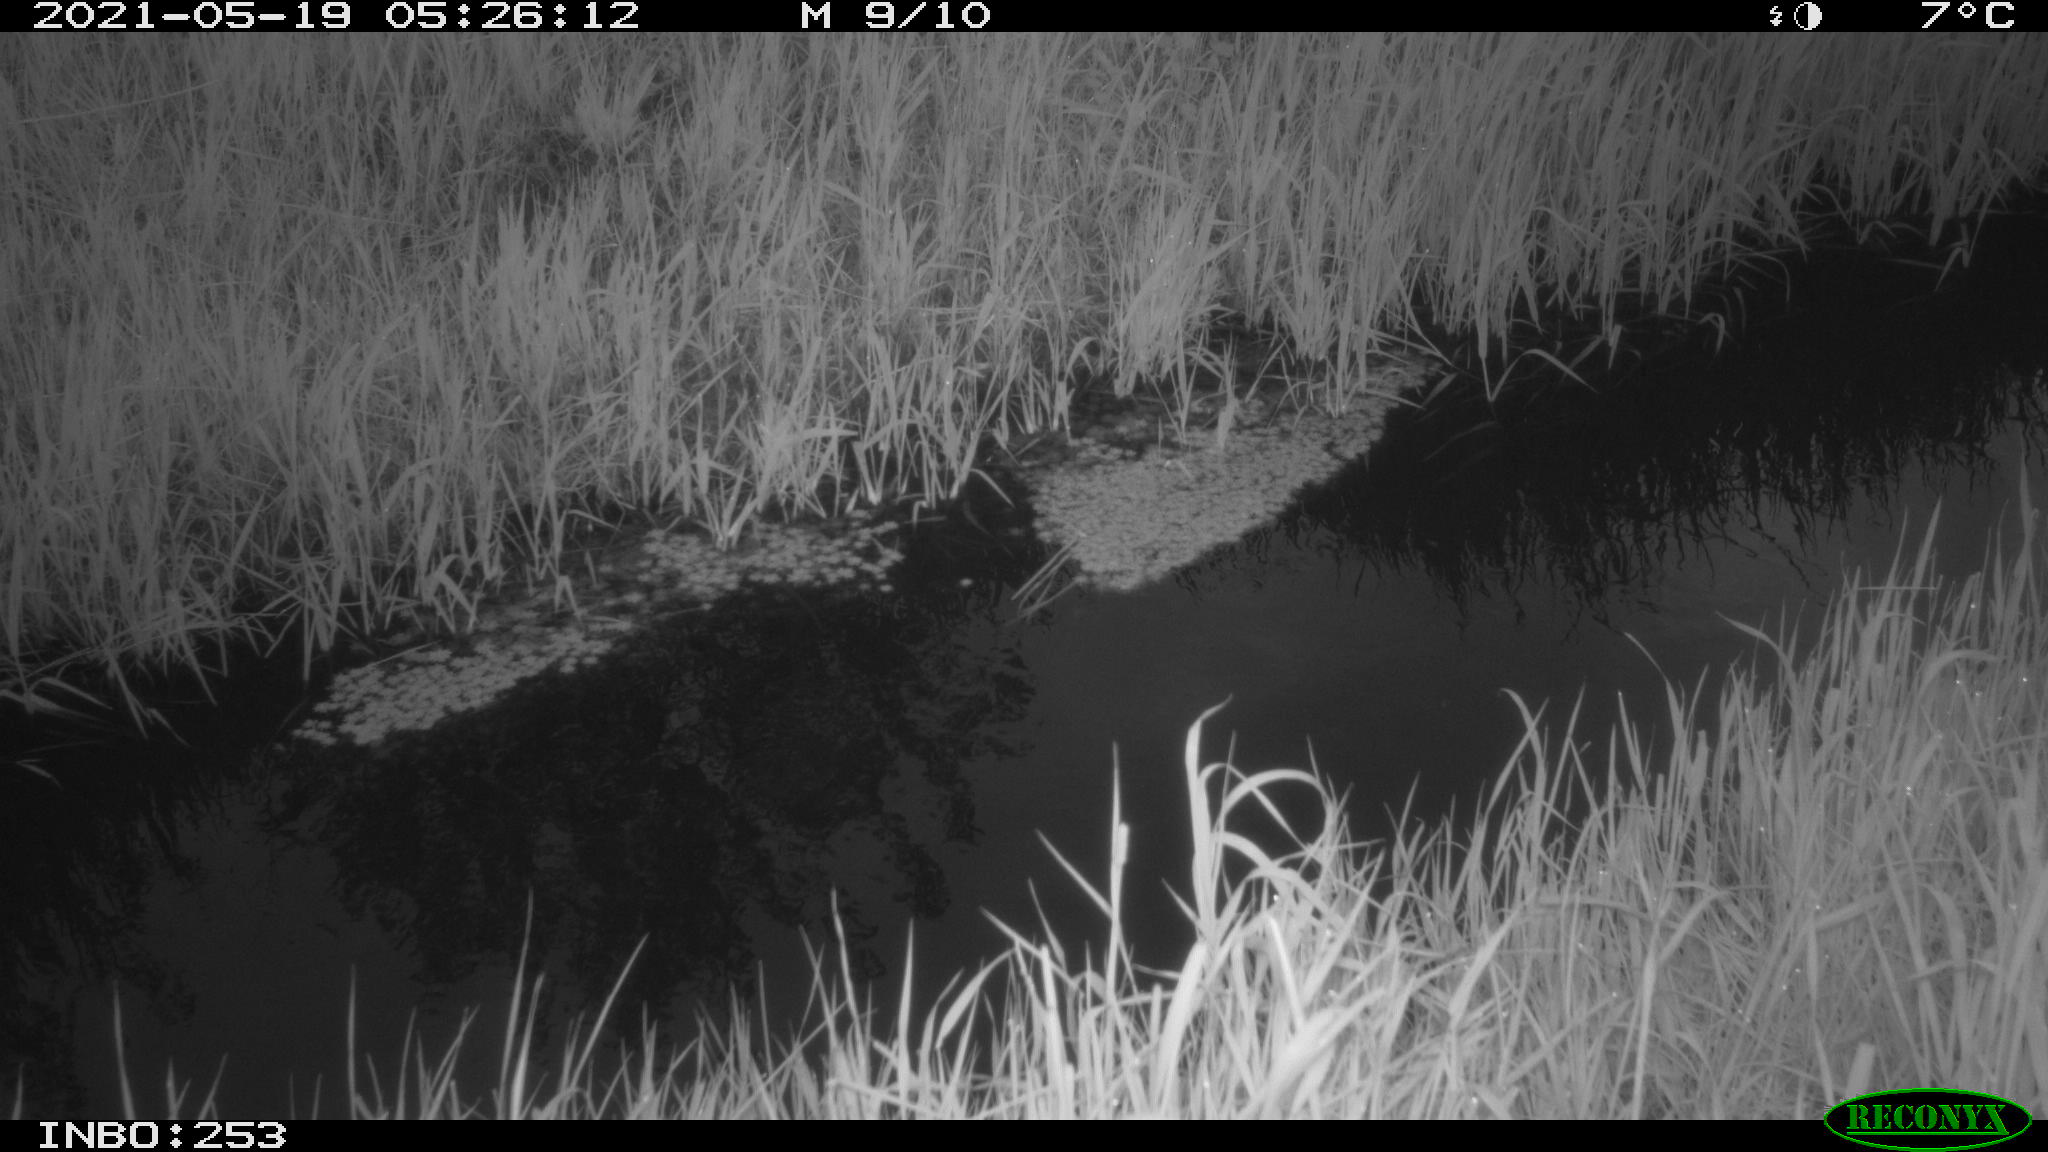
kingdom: Animalia
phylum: Chordata
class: Aves
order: Anseriformes
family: Anatidae
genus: Anas
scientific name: Anas platyrhynchos
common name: Mallard
